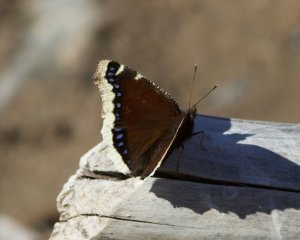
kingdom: Animalia
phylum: Arthropoda
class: Insecta
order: Lepidoptera
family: Nymphalidae
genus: Nymphalis
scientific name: Nymphalis antiopa
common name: Mourning Cloak
